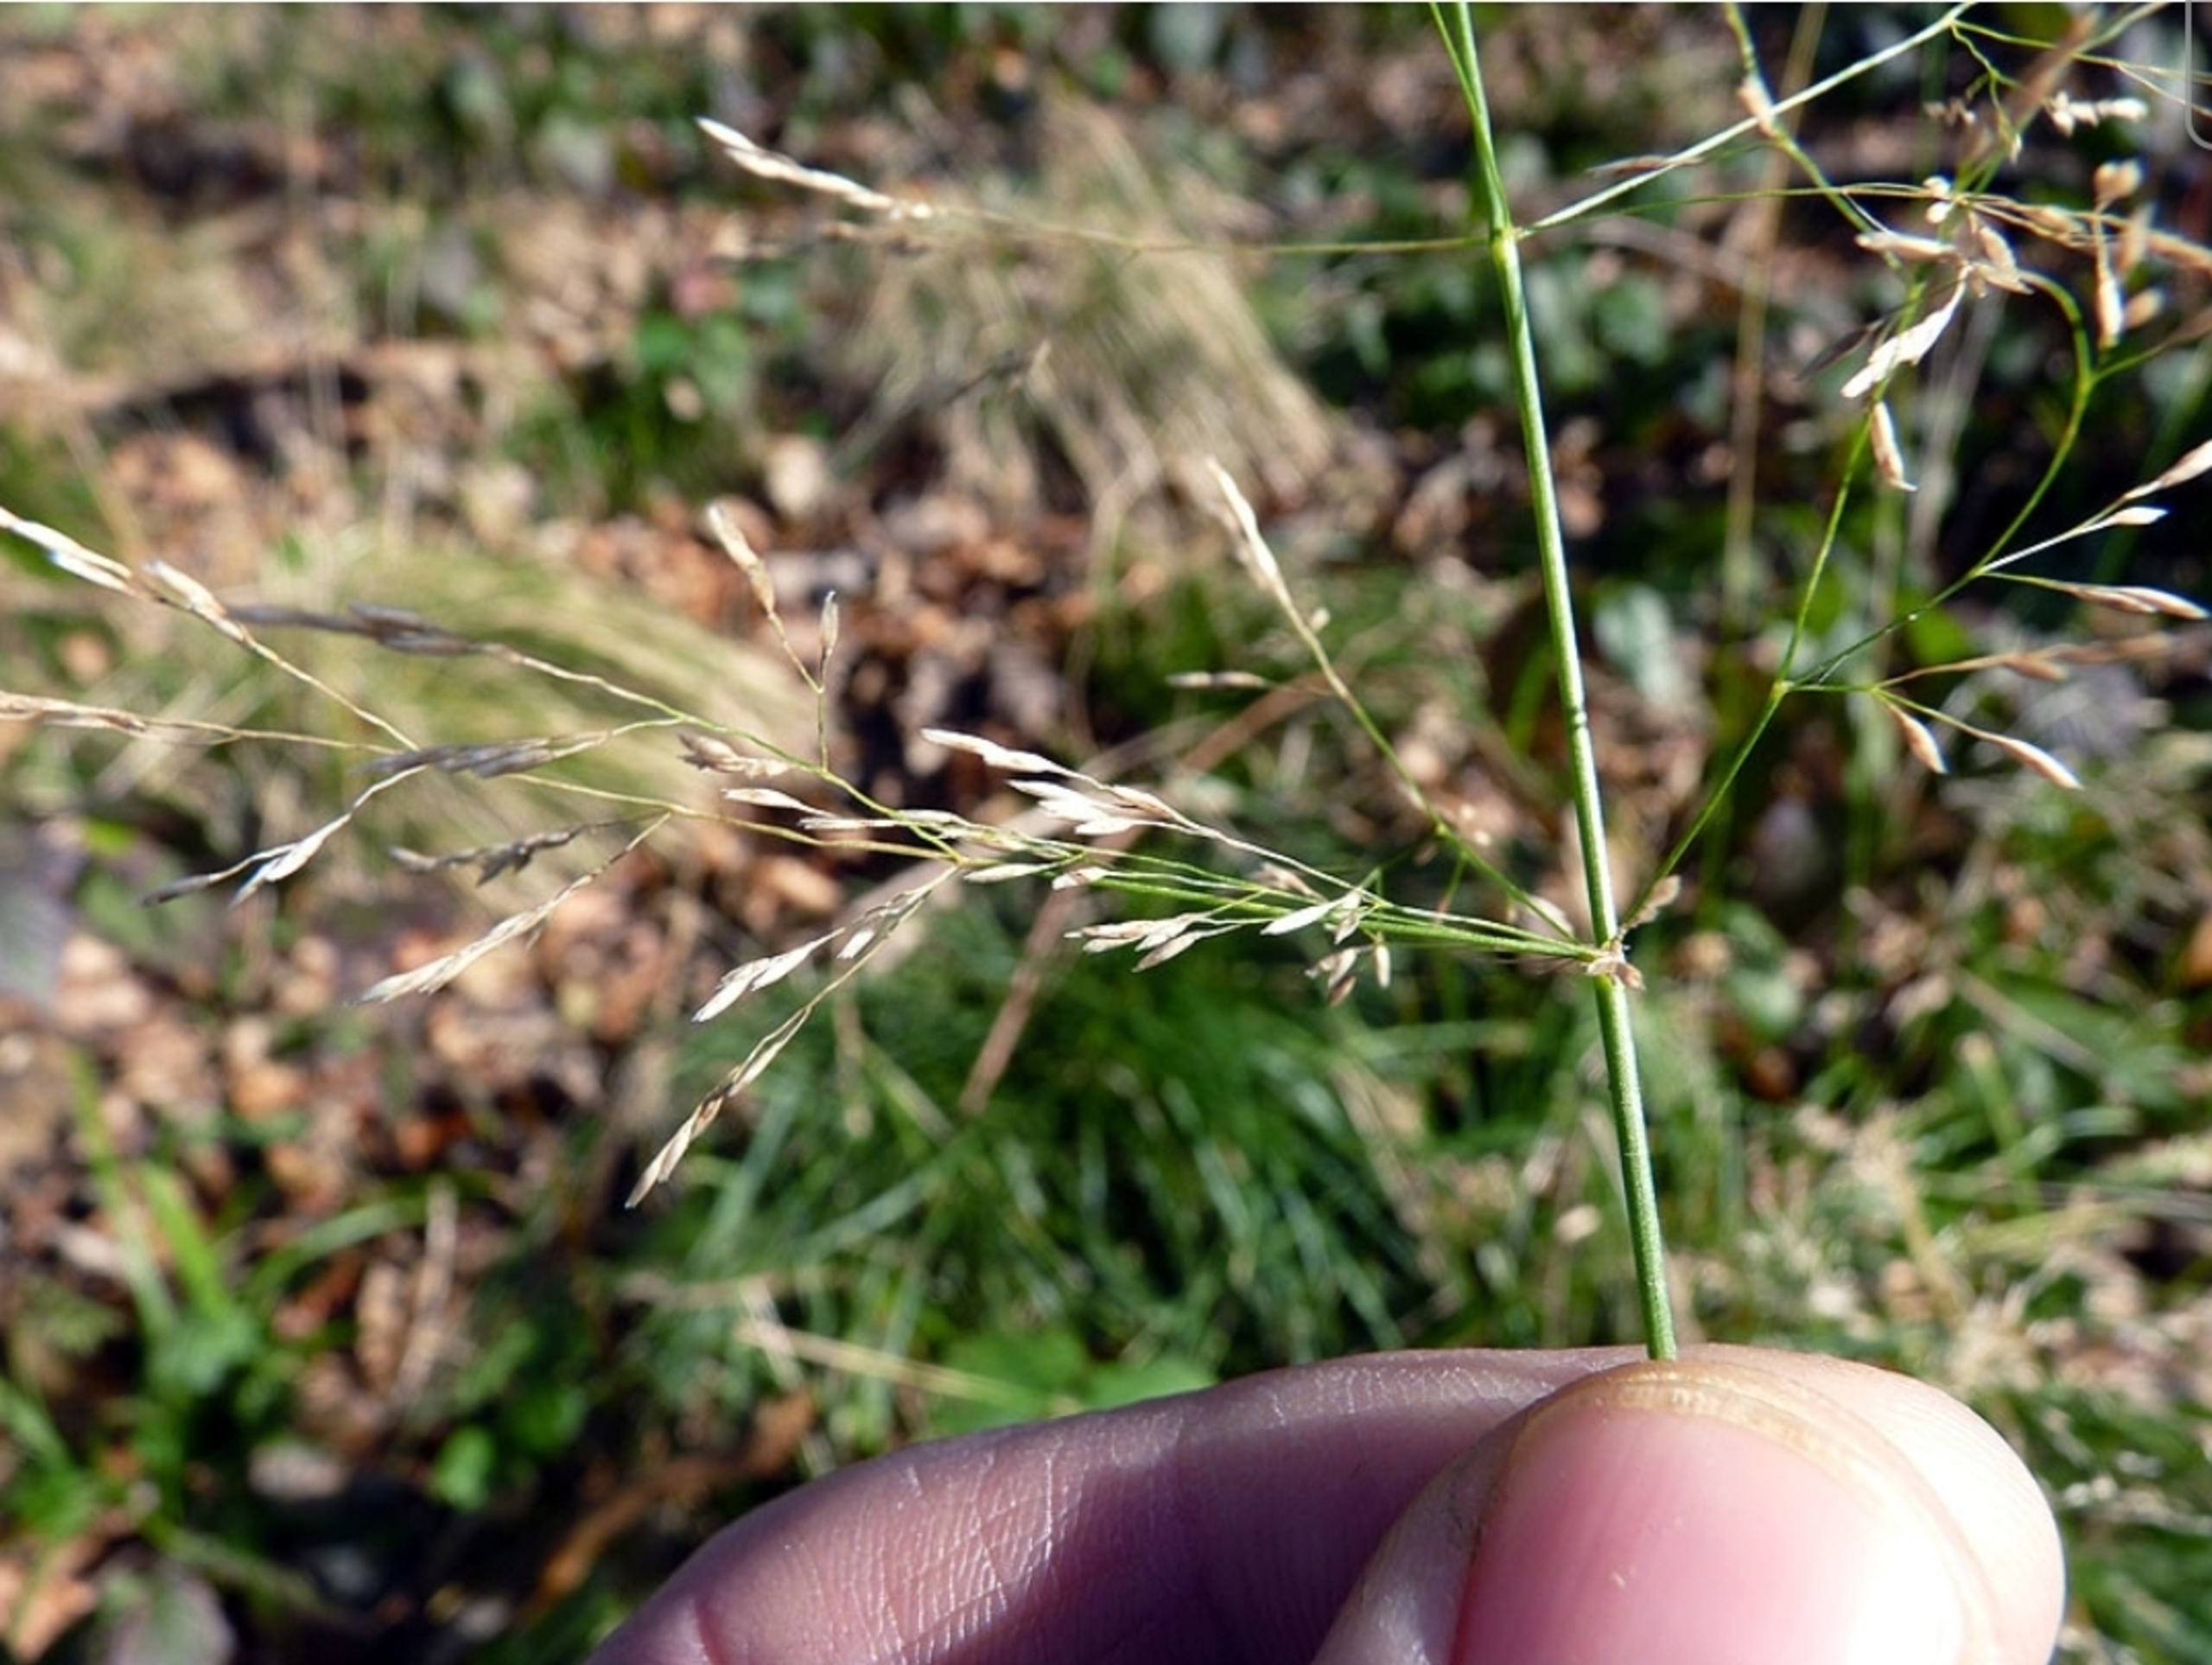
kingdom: Plantae
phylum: Tracheophyta
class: Liliopsida
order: Poales
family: Poaceae
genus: Deschampsia
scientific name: Deschampsia cespitosa
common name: Mose-bunke
